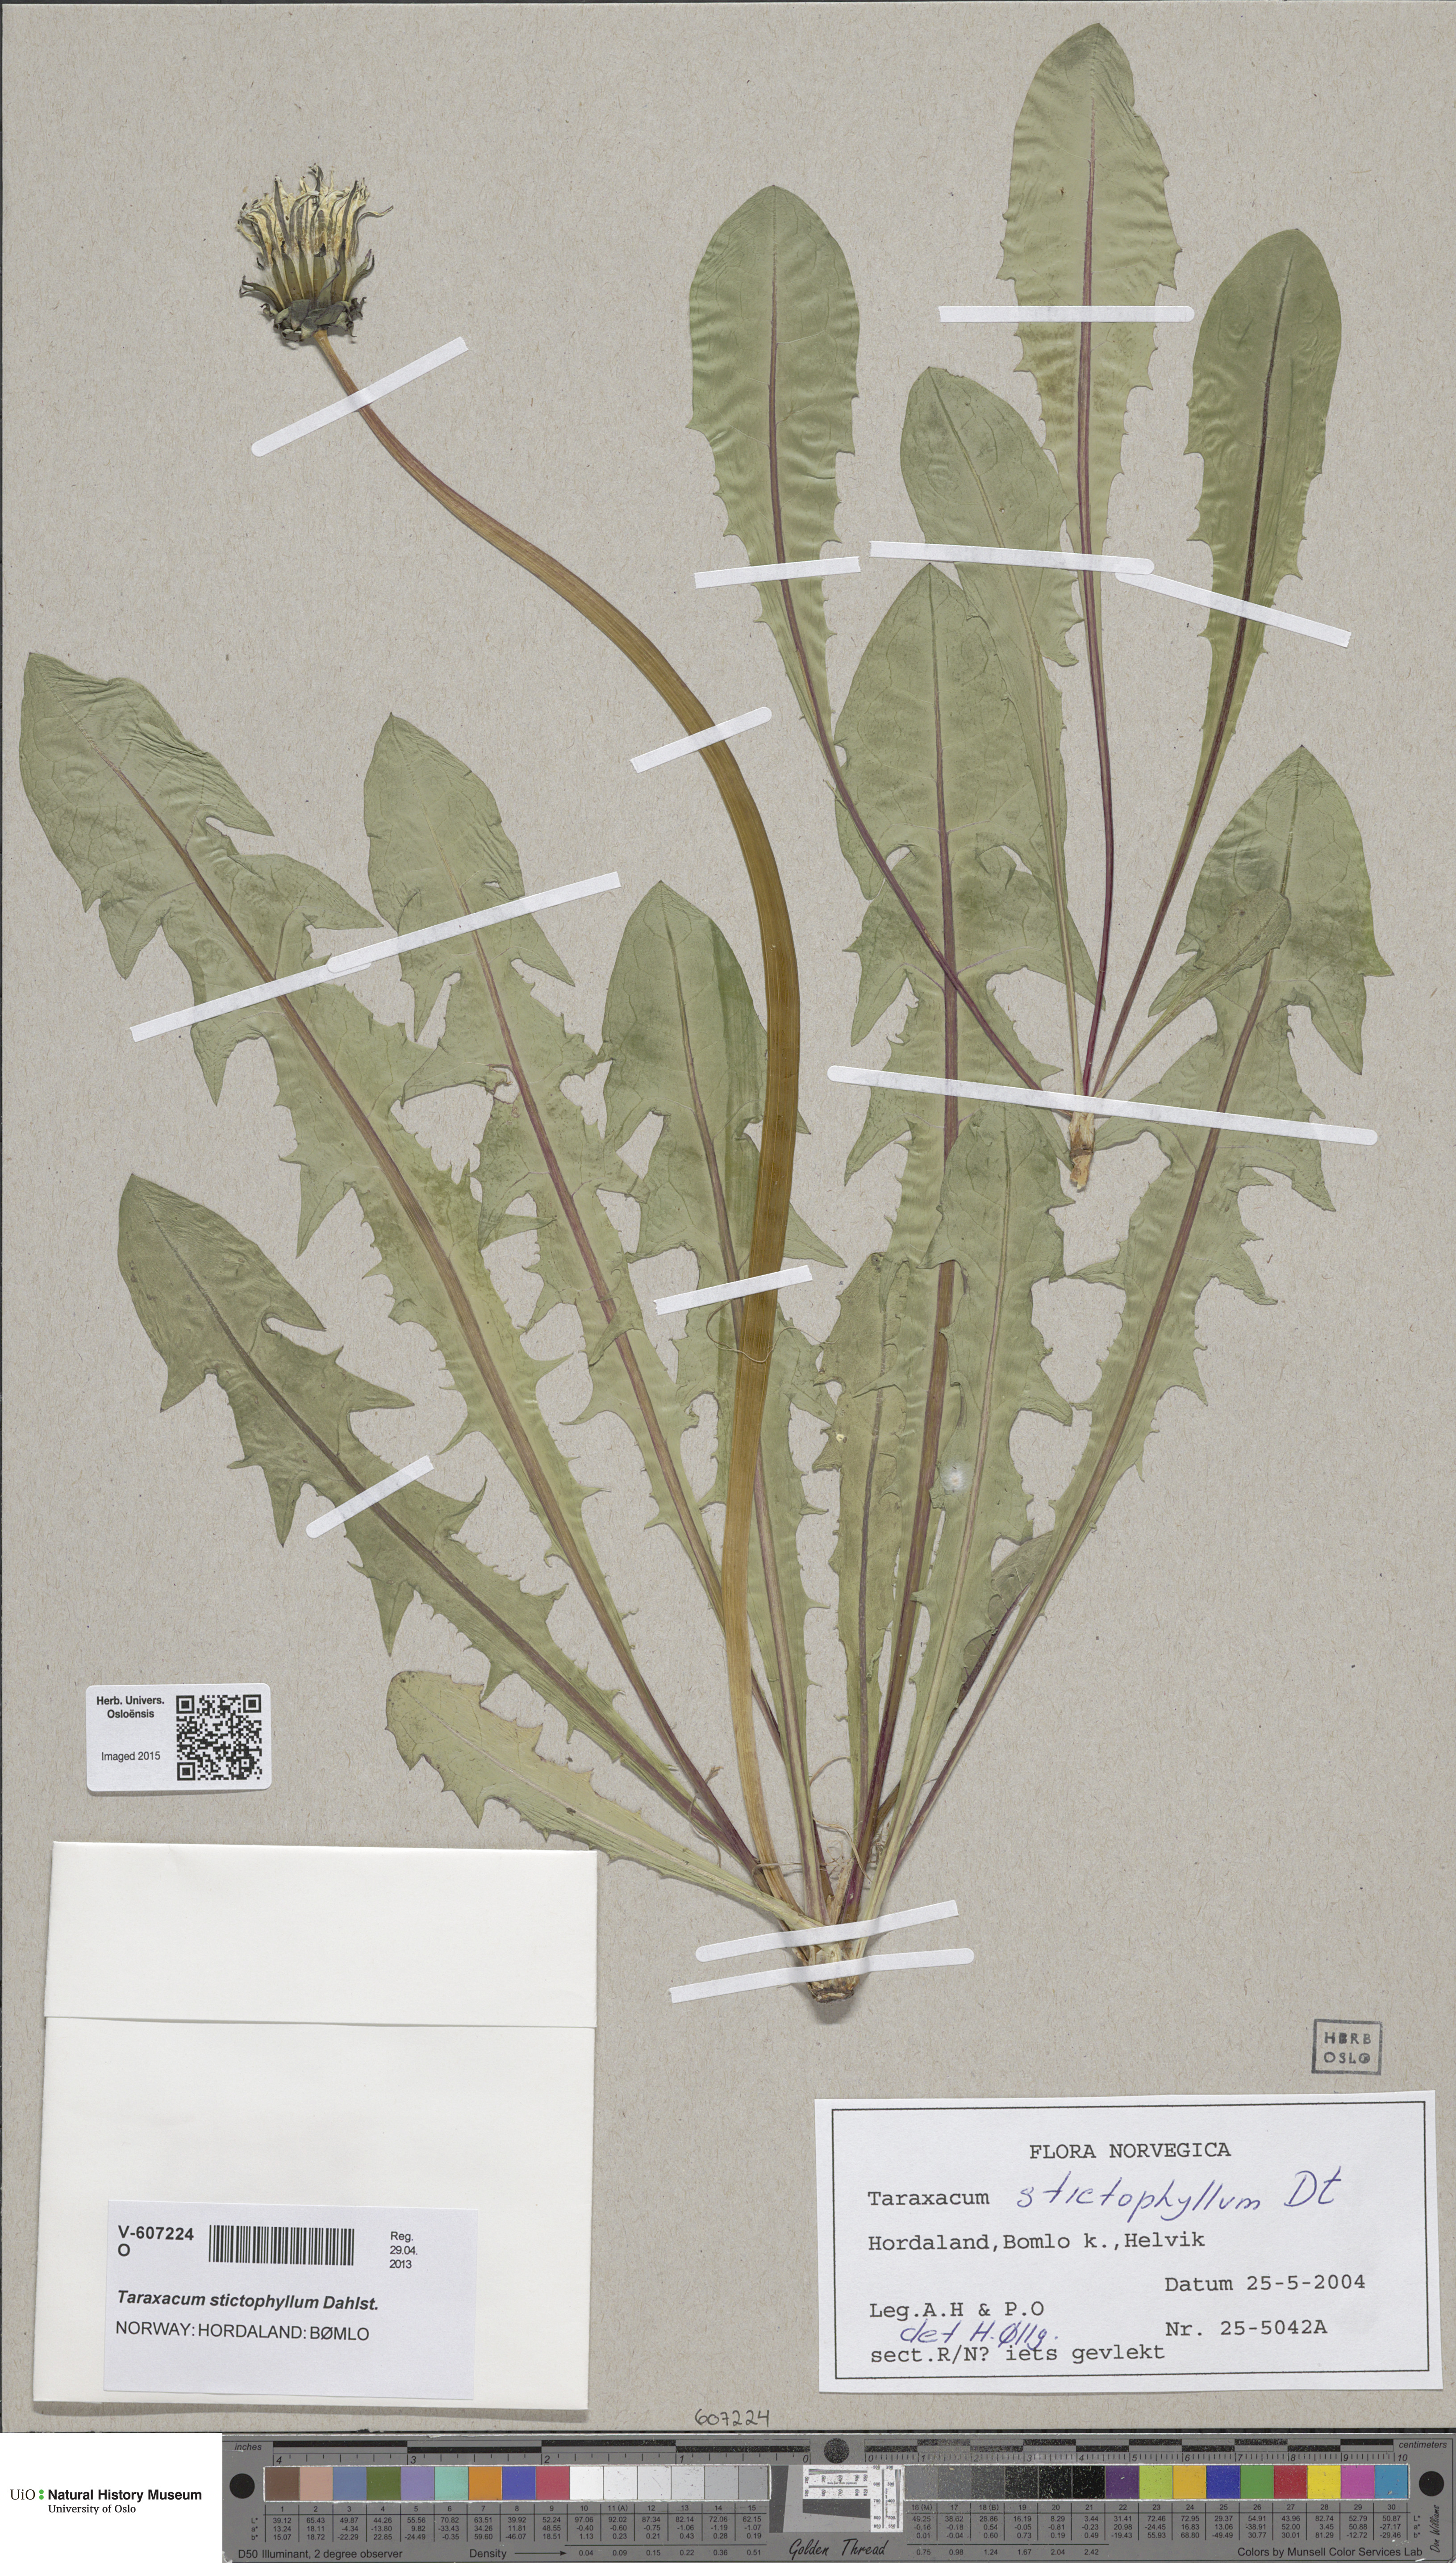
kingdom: Plantae
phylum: Tracheophyta
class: Magnoliopsida
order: Asterales
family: Asteraceae
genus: Taraxacum
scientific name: Taraxacum stictophyllum
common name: Stiff-leaved dandelion
